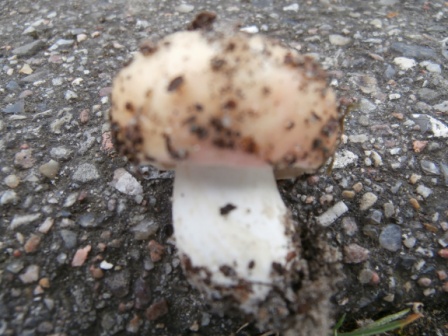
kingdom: Fungi
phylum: Basidiomycota
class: Agaricomycetes
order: Russulales
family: Russulaceae
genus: Russula
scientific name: Russula depallens
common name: falmende skørhat
